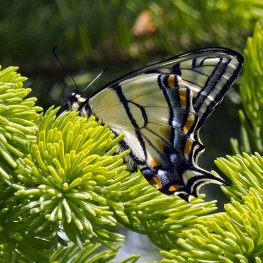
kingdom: Animalia
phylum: Arthropoda
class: Insecta
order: Lepidoptera
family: Papilionidae
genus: Pterourus
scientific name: Pterourus canadensis
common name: Canadian Tiger Swallowtail
